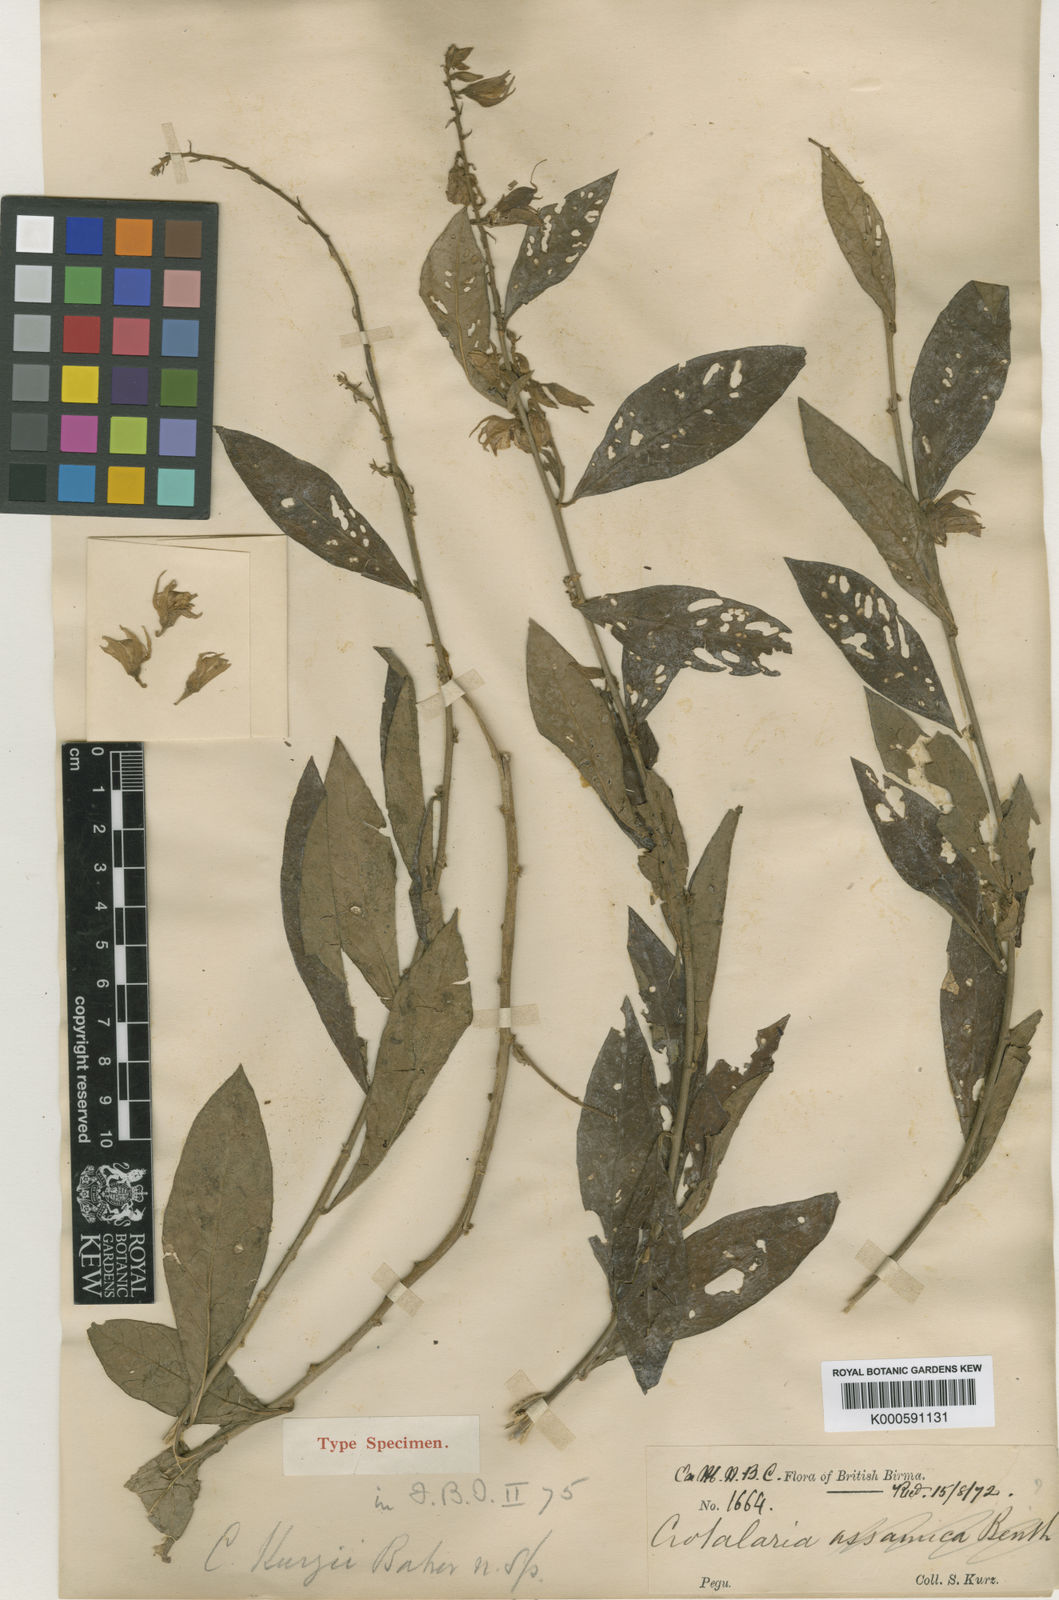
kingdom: Plantae
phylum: Tracheophyta
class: Magnoliopsida
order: Fabales
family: Fabaceae
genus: Crotalaria
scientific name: Crotalaria kurzii
